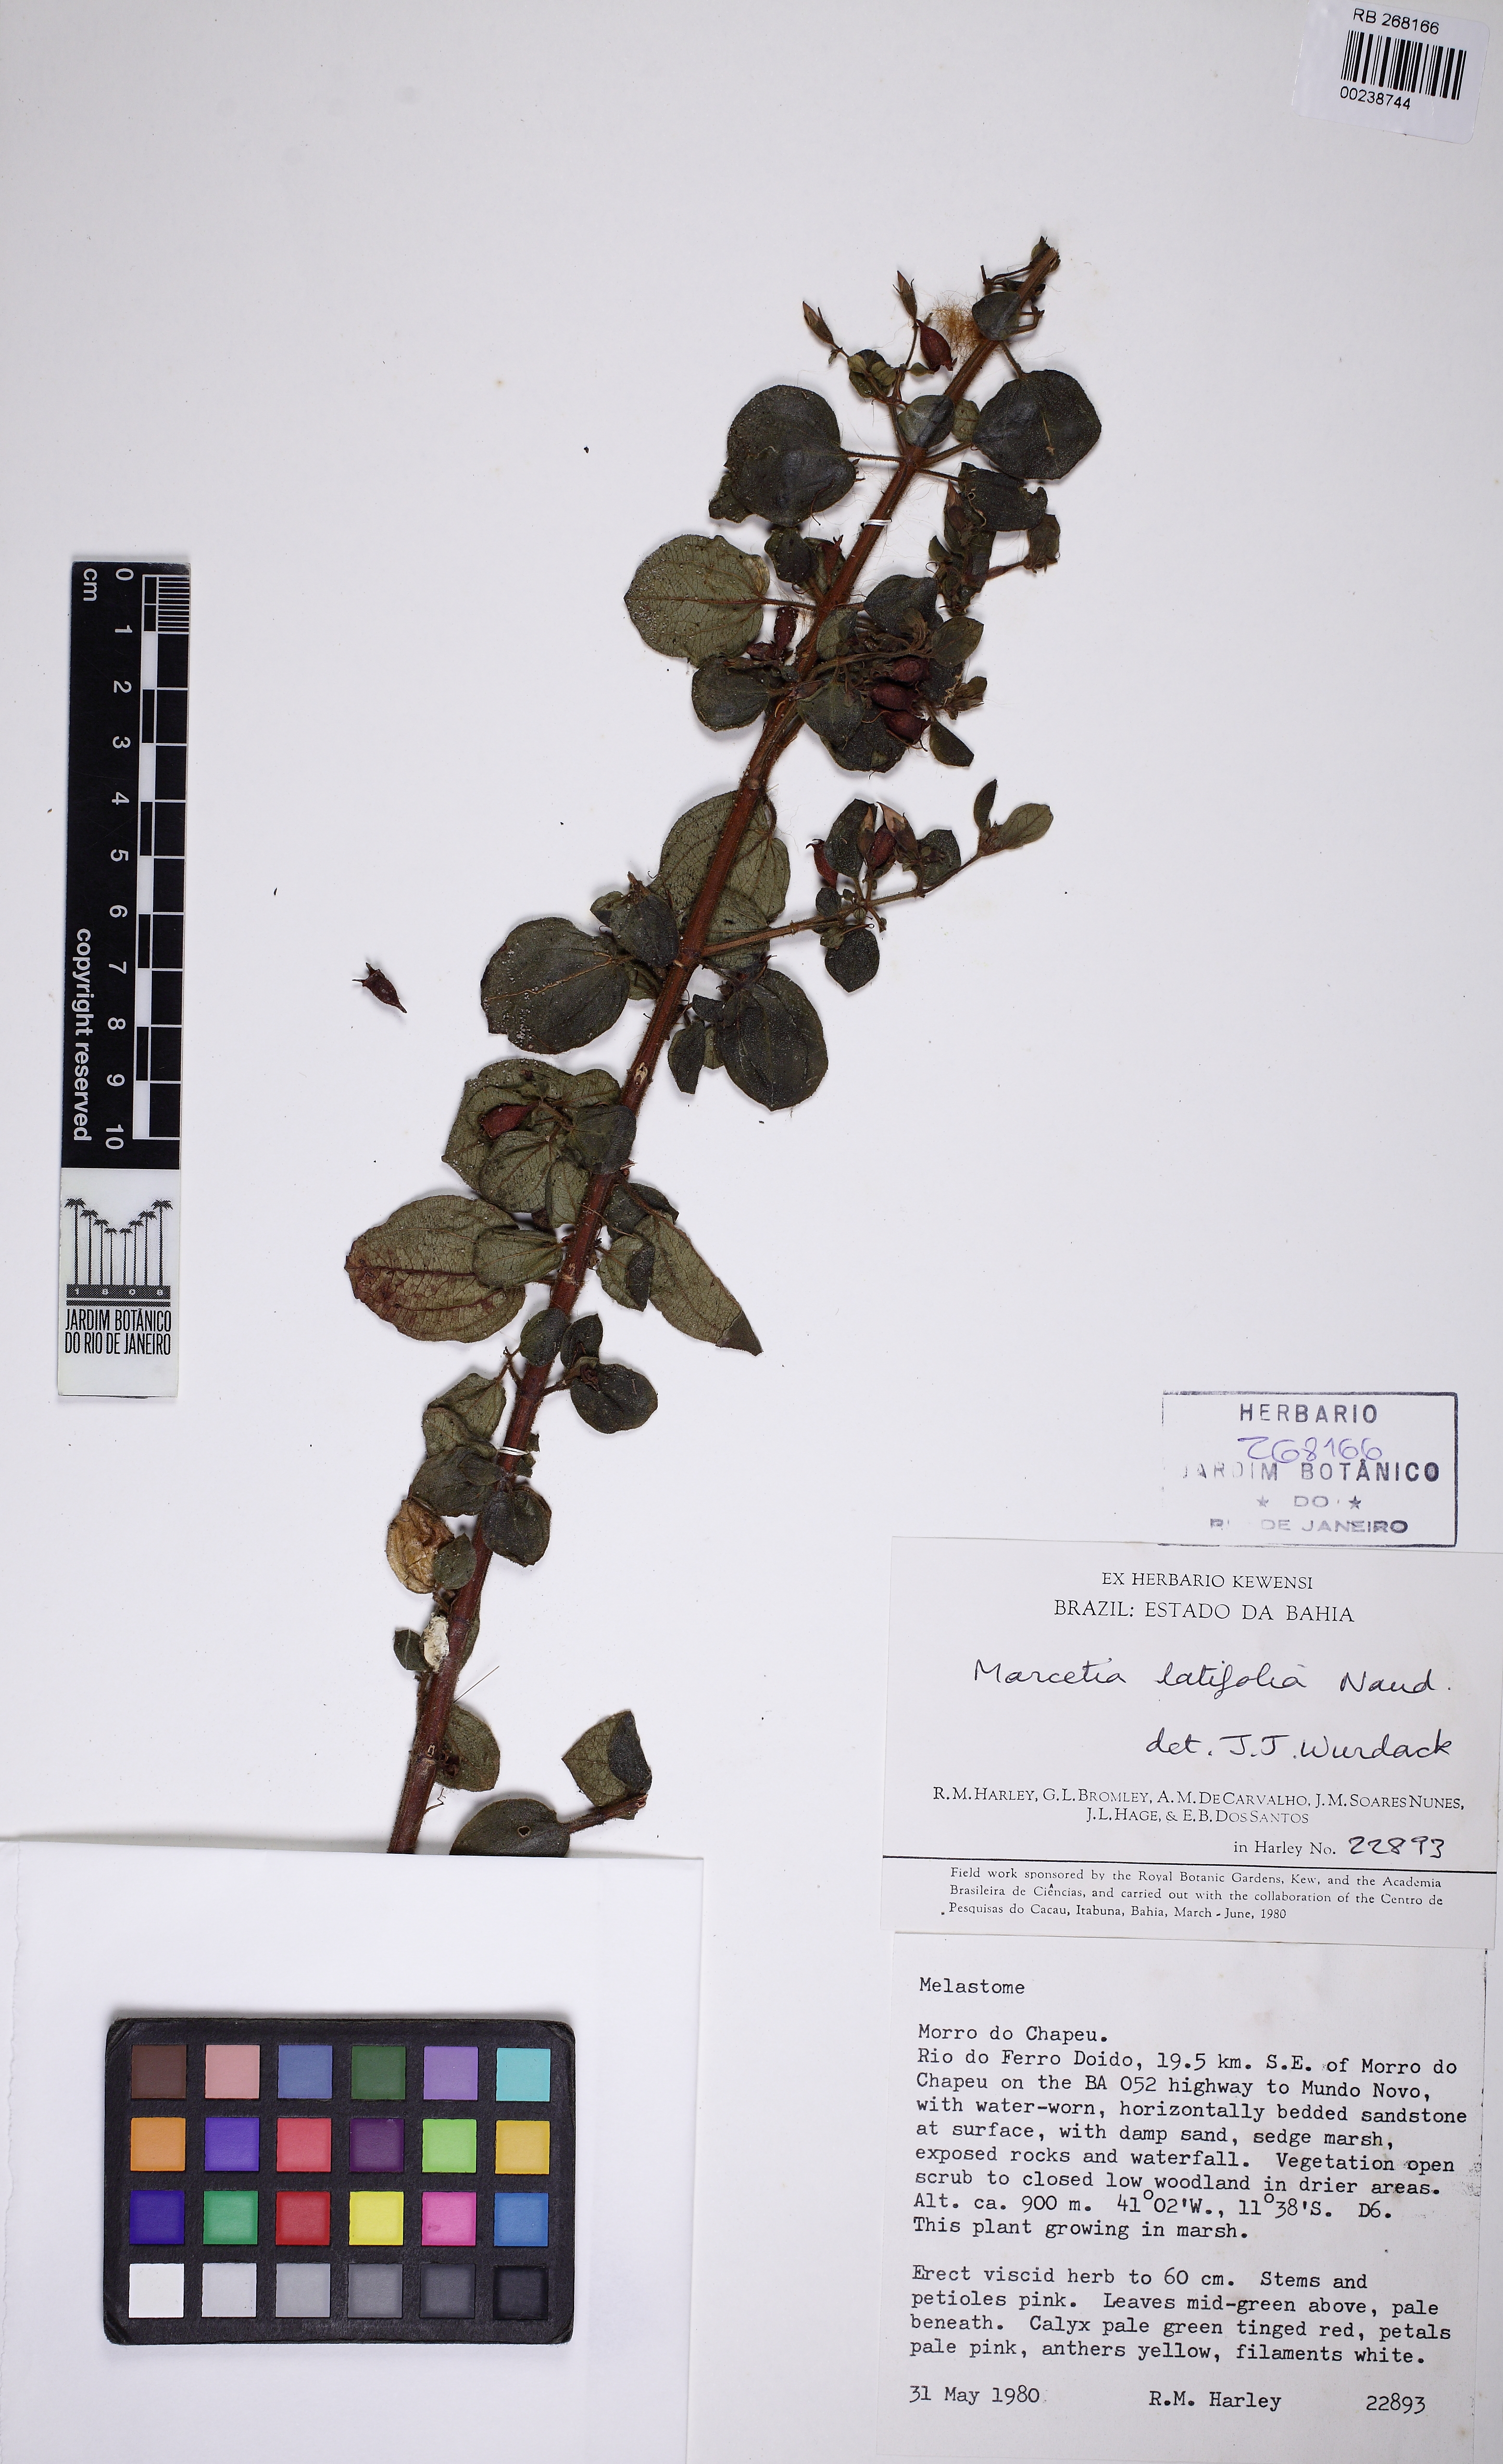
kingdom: Plantae
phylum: Tracheophyta
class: Magnoliopsida
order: Myrtales
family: Melastomataceae
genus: Marcetia
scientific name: Marcetia latifolia
